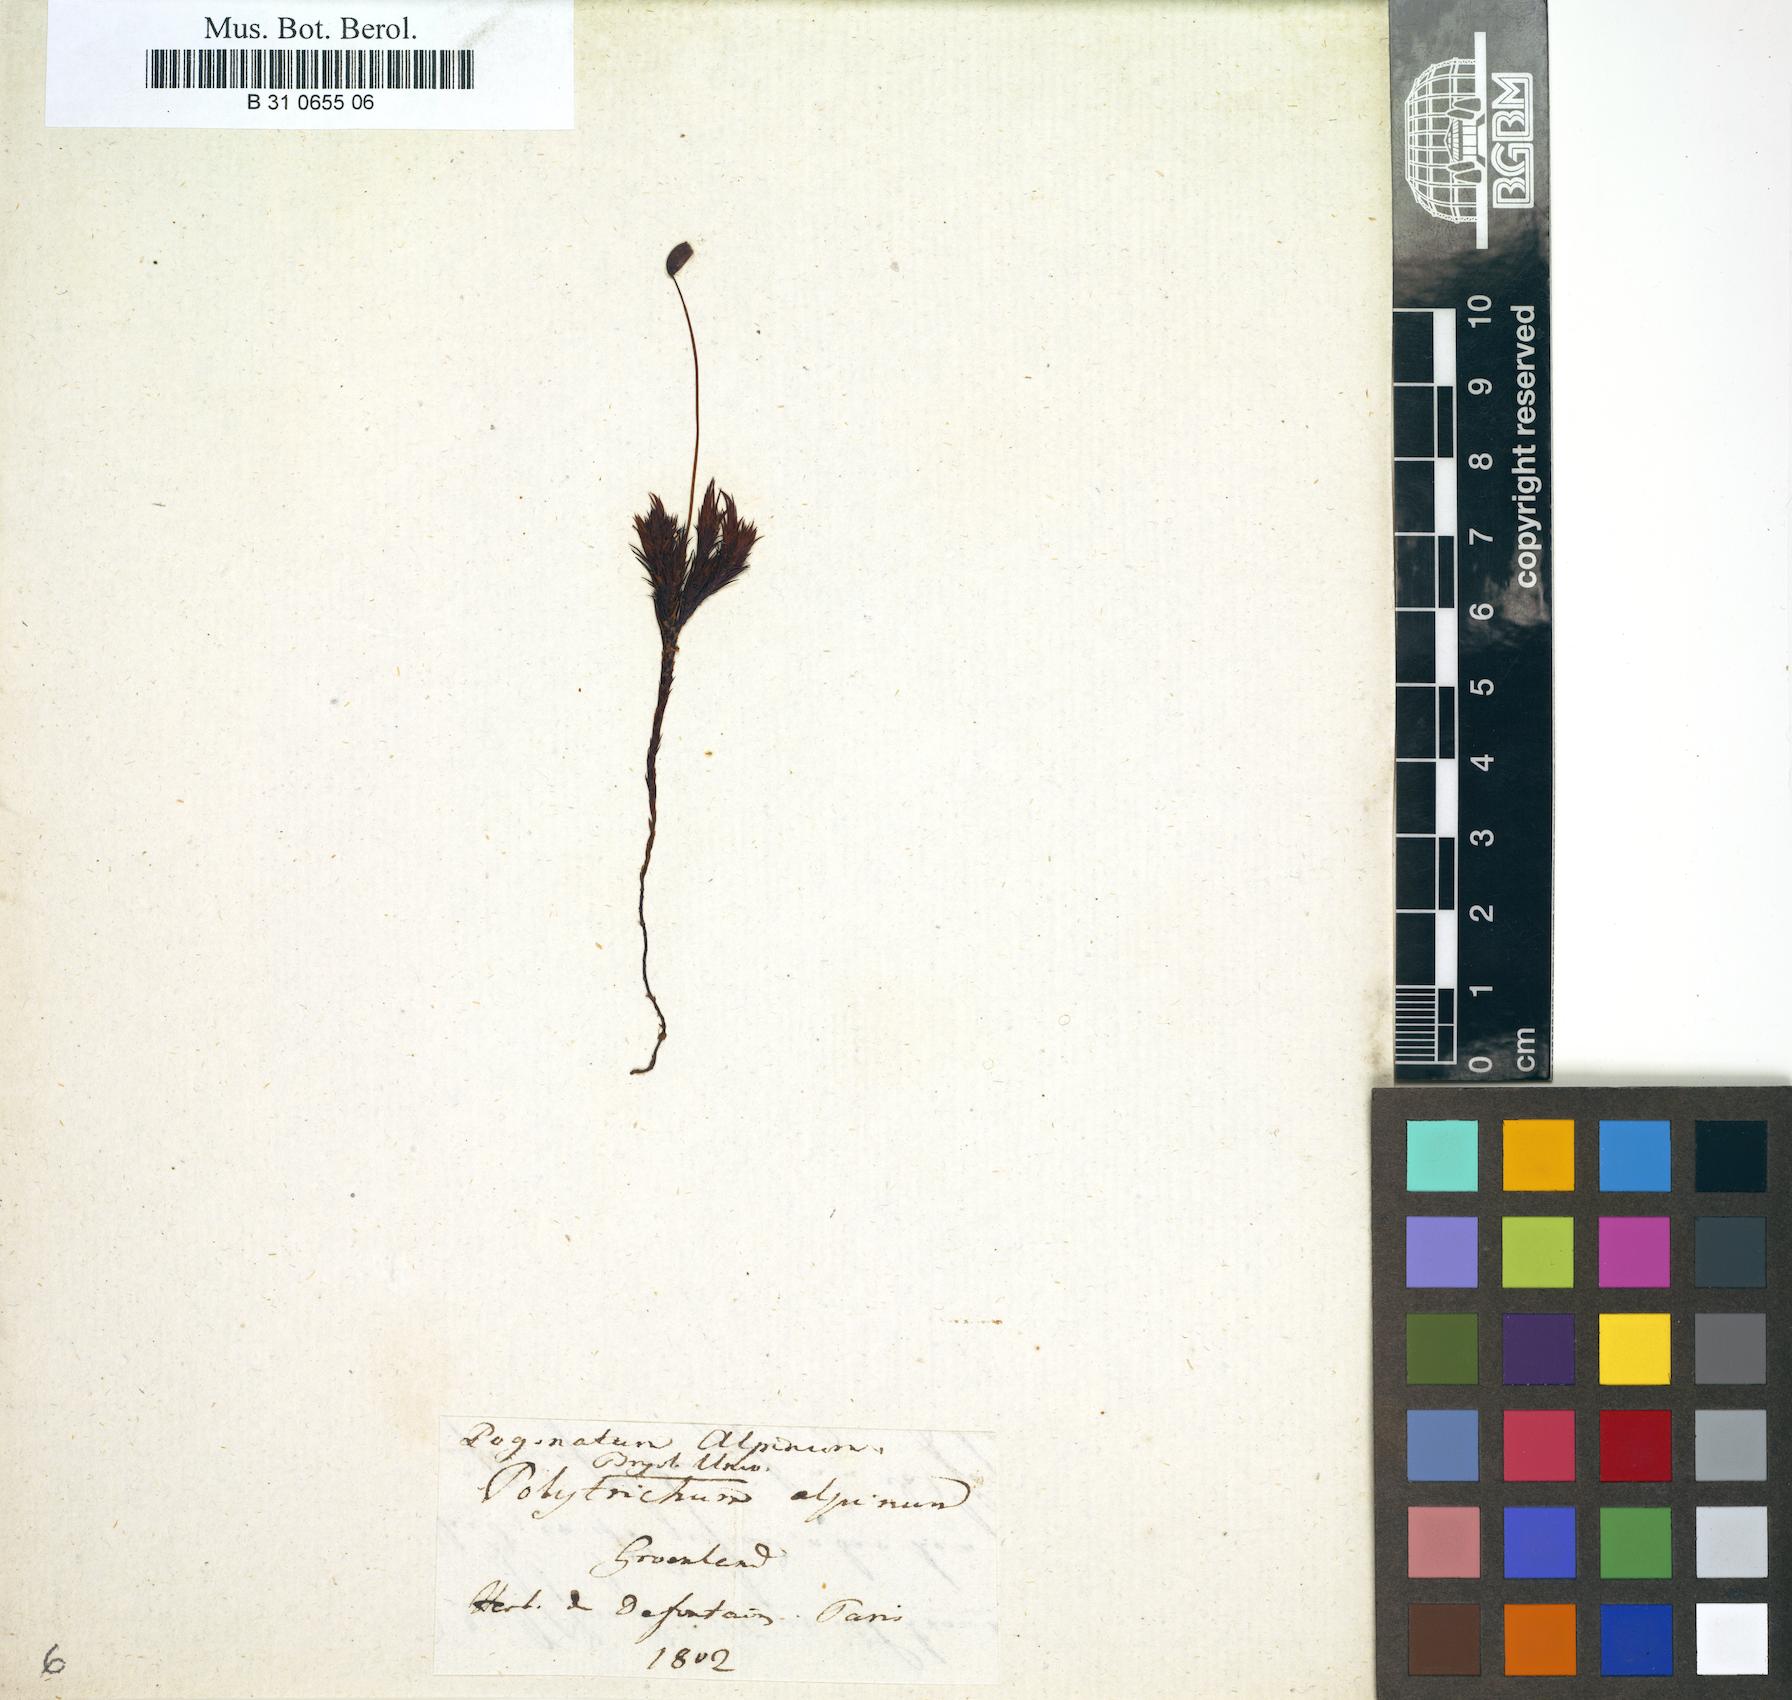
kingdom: Plantae
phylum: Bryophyta
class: Polytrichopsida
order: Polytrichales
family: Polytrichaceae
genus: Polytrichastrum
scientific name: Polytrichastrum alpinum
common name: Alpine haircap
